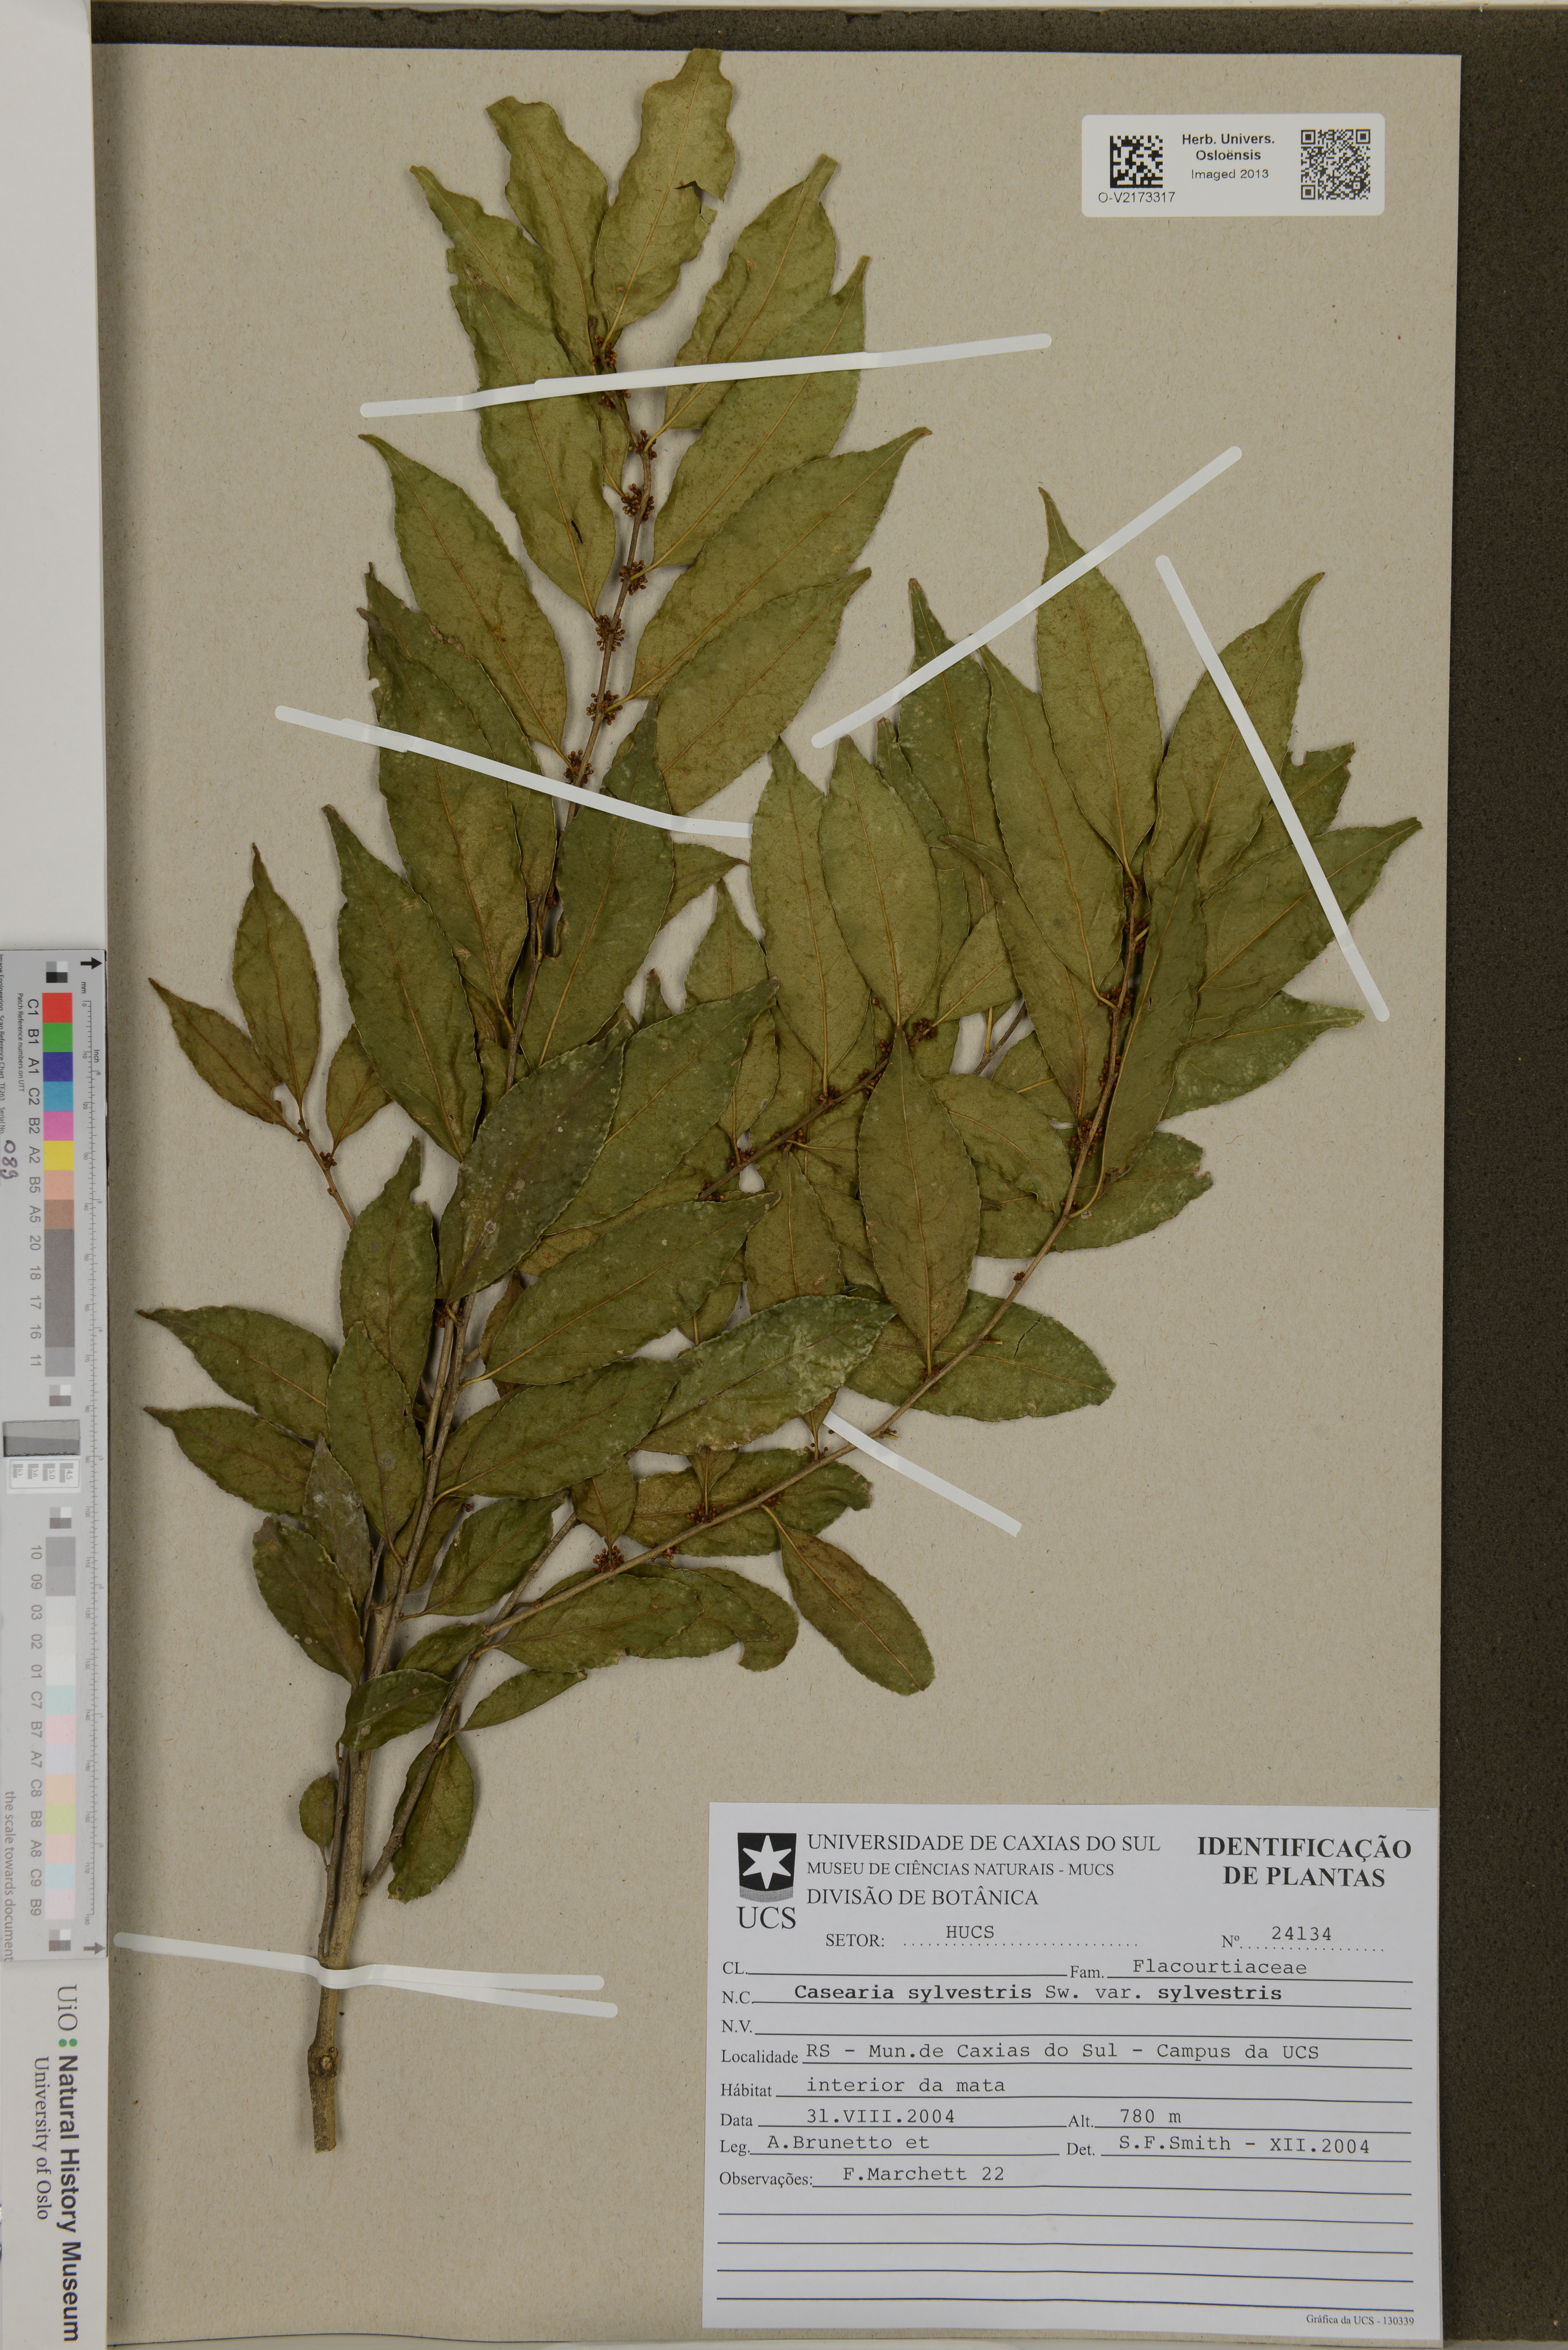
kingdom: Plantae
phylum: Tracheophyta
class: Magnoliopsida
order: Malpighiales
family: Salicaceae
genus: Casearia
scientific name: Casearia sylvestris
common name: Wild sage
